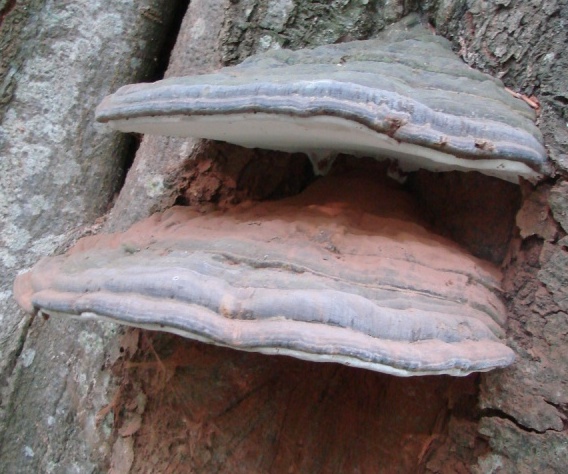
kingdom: Fungi
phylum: Basidiomycota
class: Agaricomycetes
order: Polyporales
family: Polyporaceae
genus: Ganoderma
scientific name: Ganoderma pfeifferi
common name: kobberrød lakporesvamp
